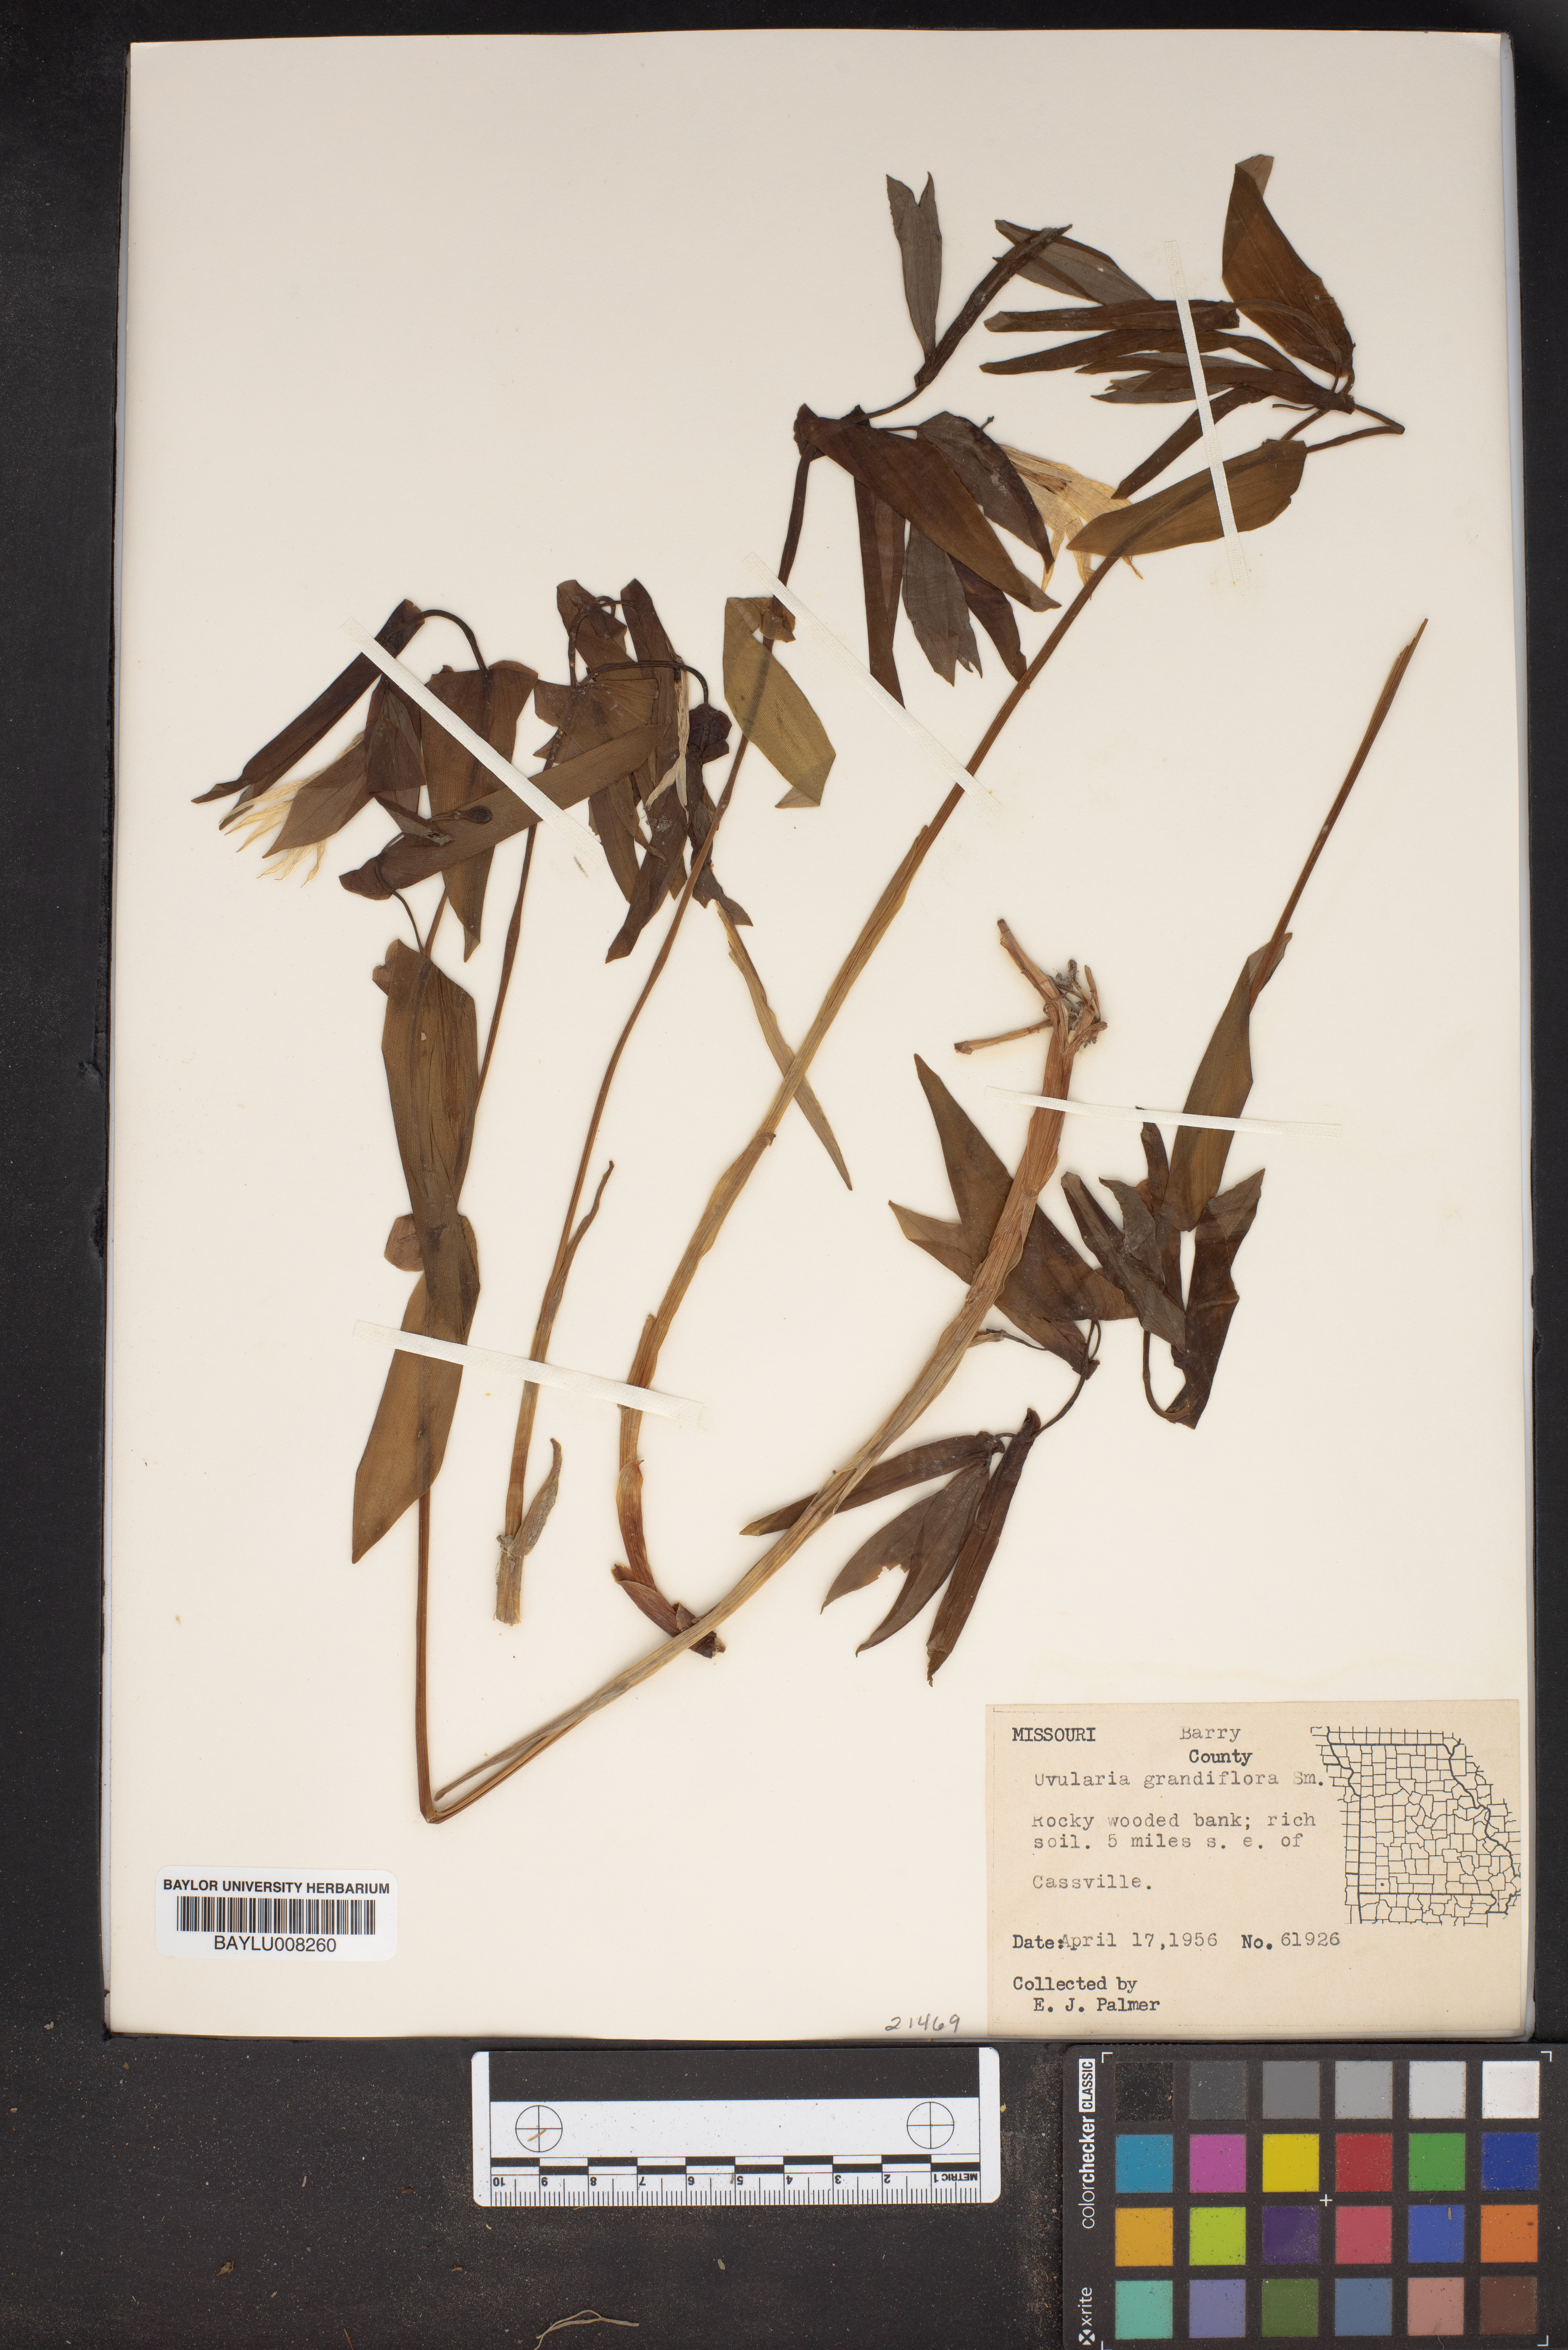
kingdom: Plantae
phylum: Tracheophyta
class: Liliopsida
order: Liliales
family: Colchicaceae
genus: Uvularia
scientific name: Uvularia grandiflora
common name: Bellwort
